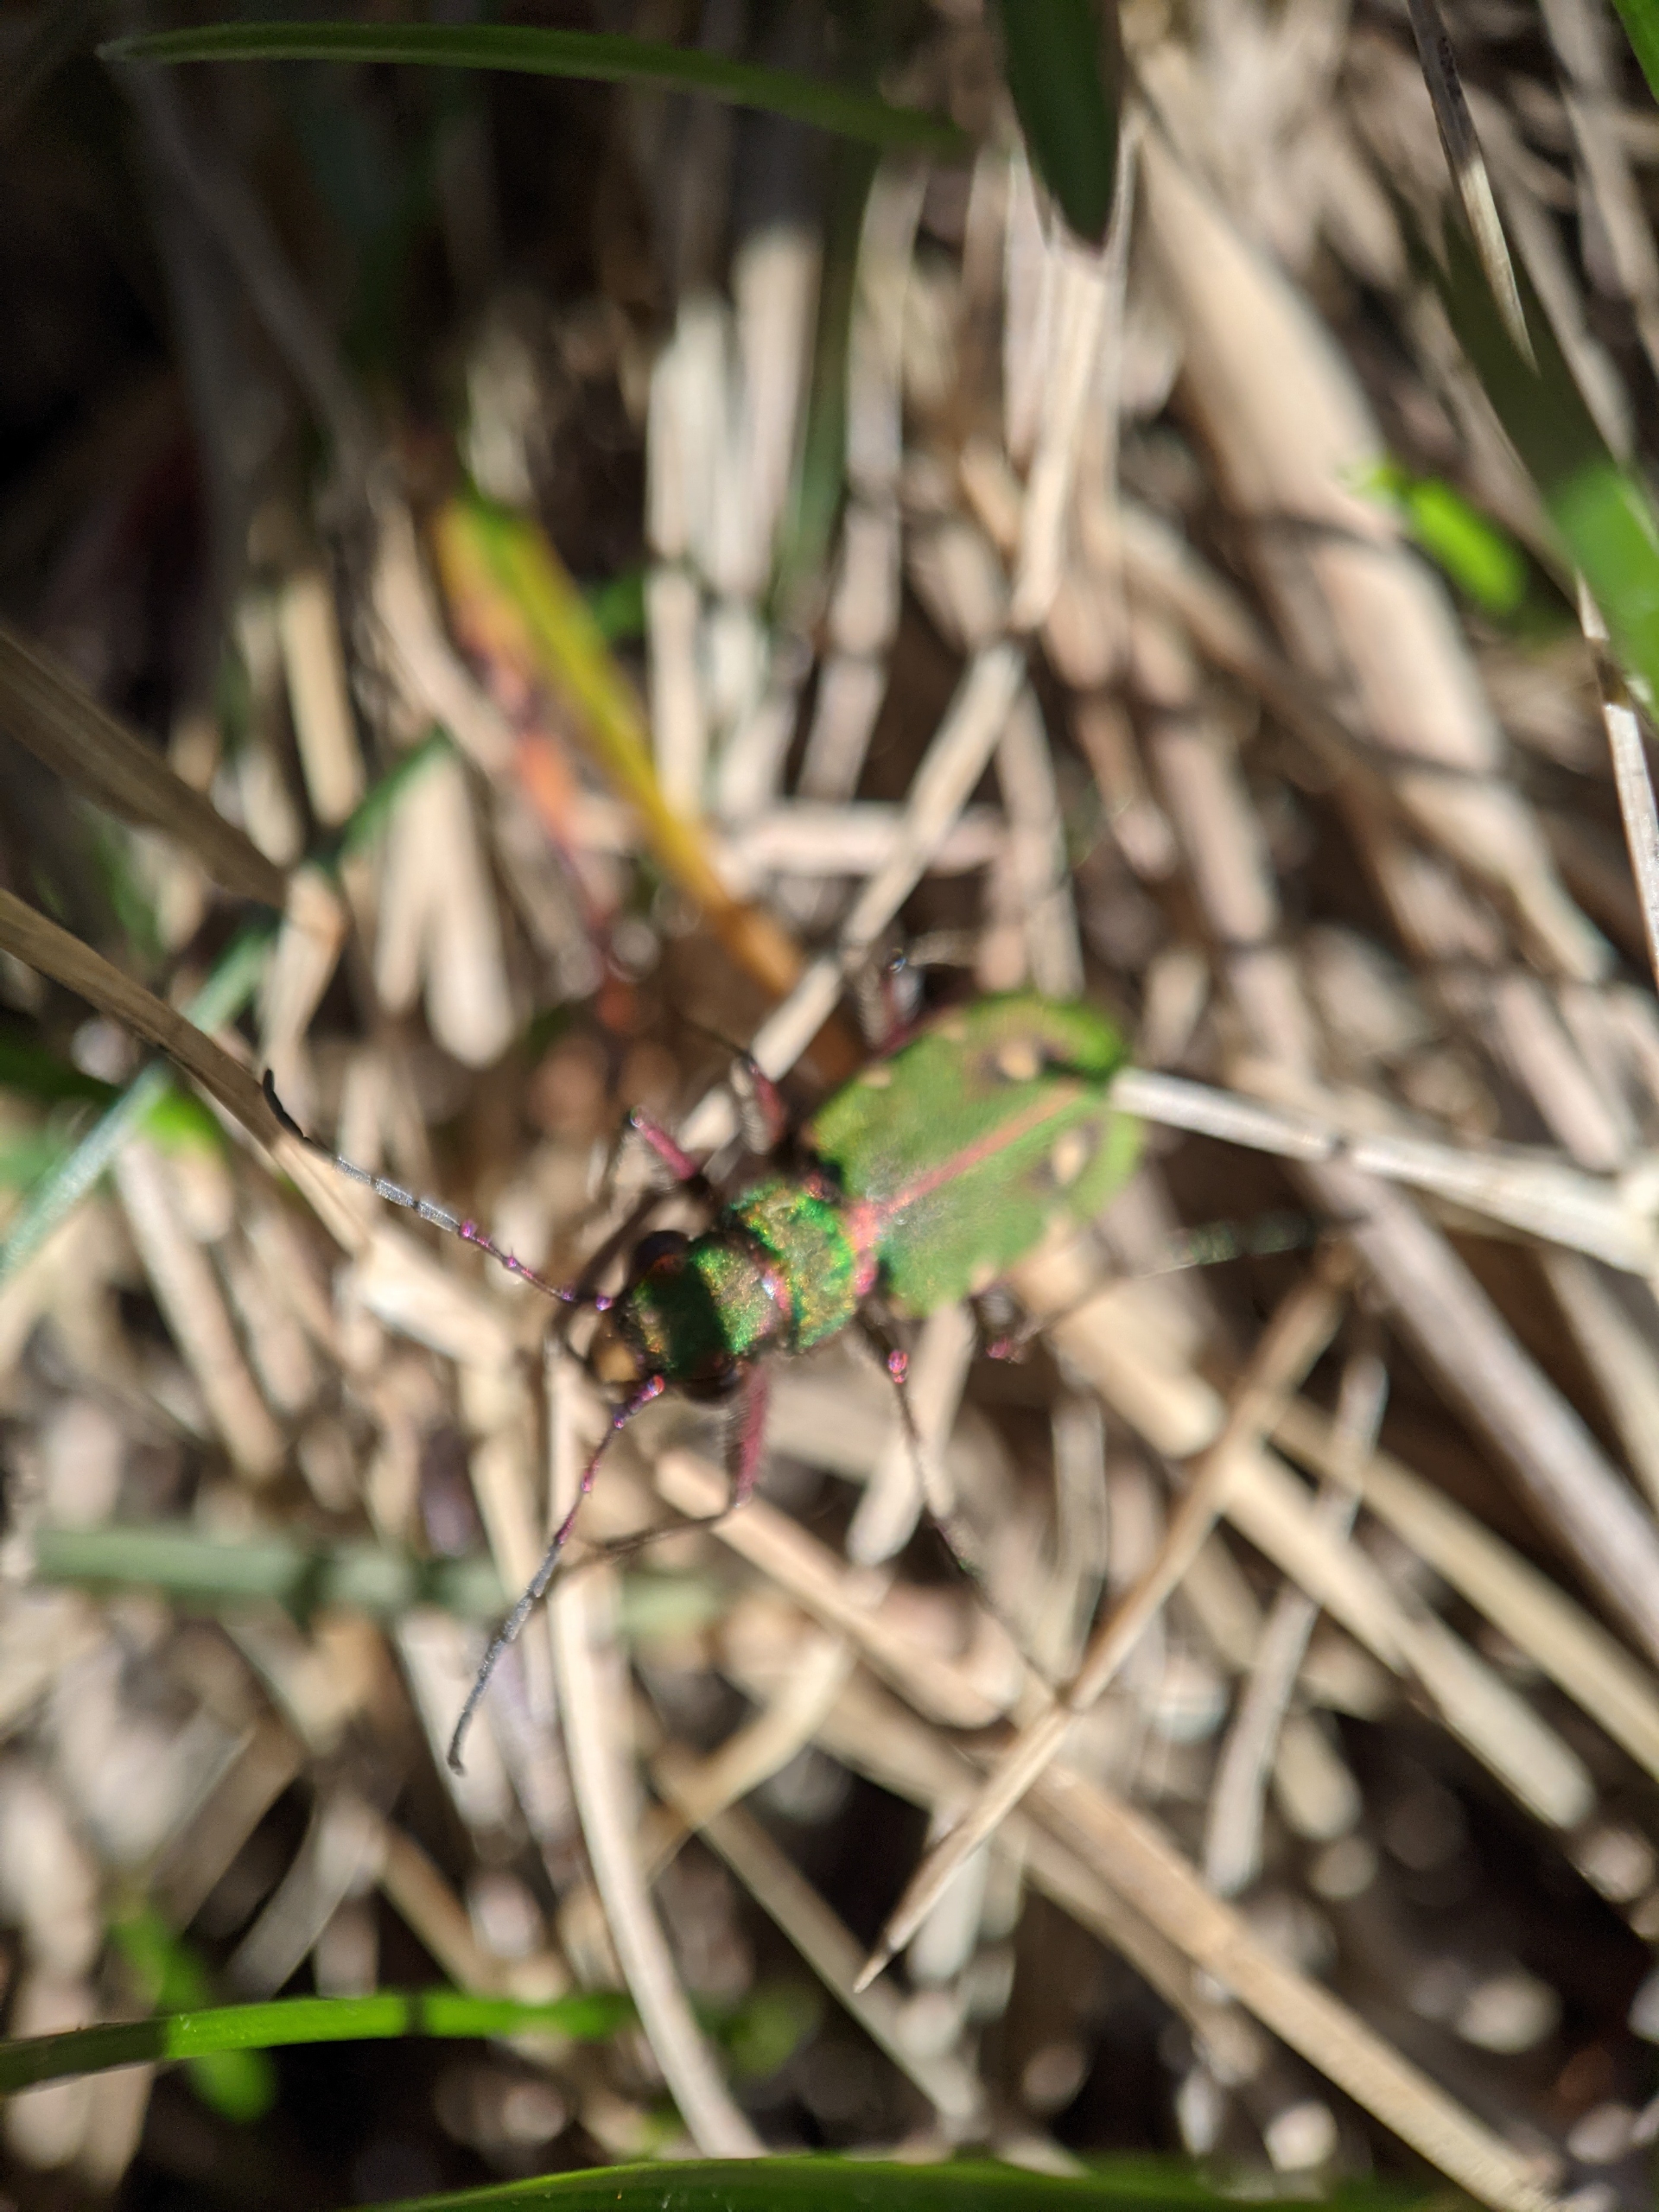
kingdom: Animalia
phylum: Arthropoda
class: Insecta
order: Coleoptera
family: Carabidae
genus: Cicindela
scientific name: Cicindela campestris
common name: Grøn sandspringer
